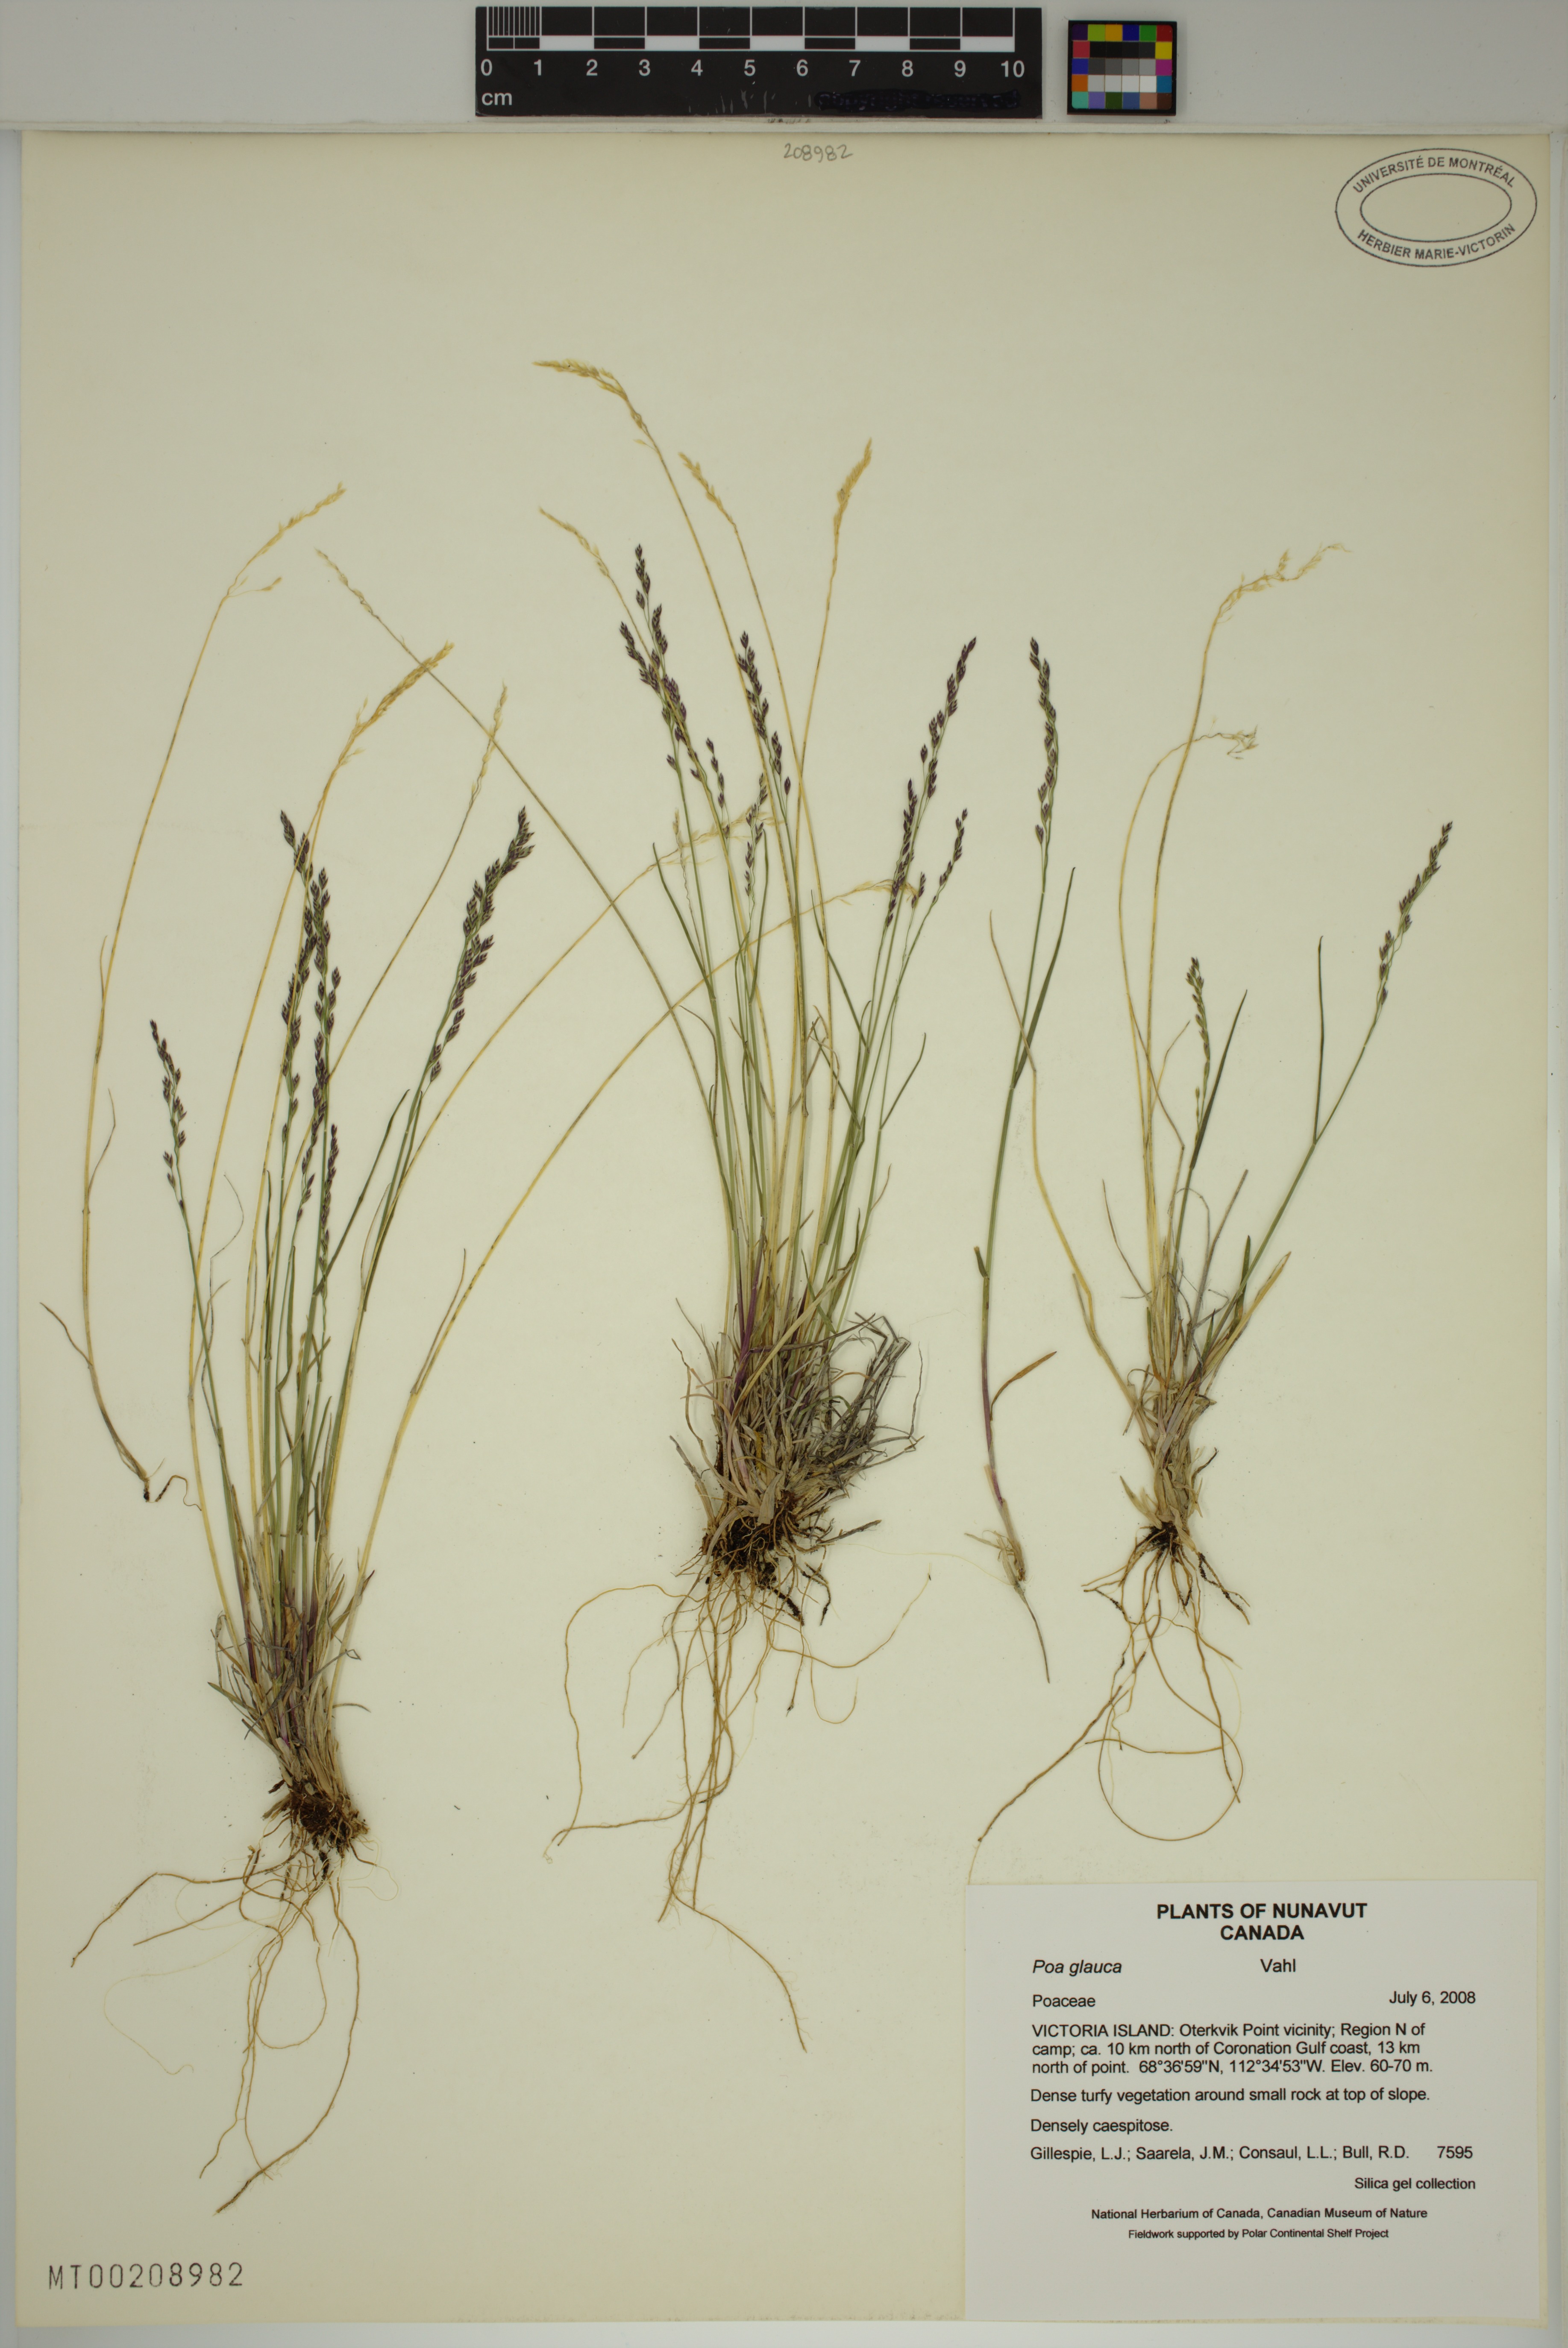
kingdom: Plantae
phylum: Tracheophyta
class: Liliopsida
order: Poales
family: Poaceae
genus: Poa
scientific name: Poa glauca
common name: Glaucous bluegrass
